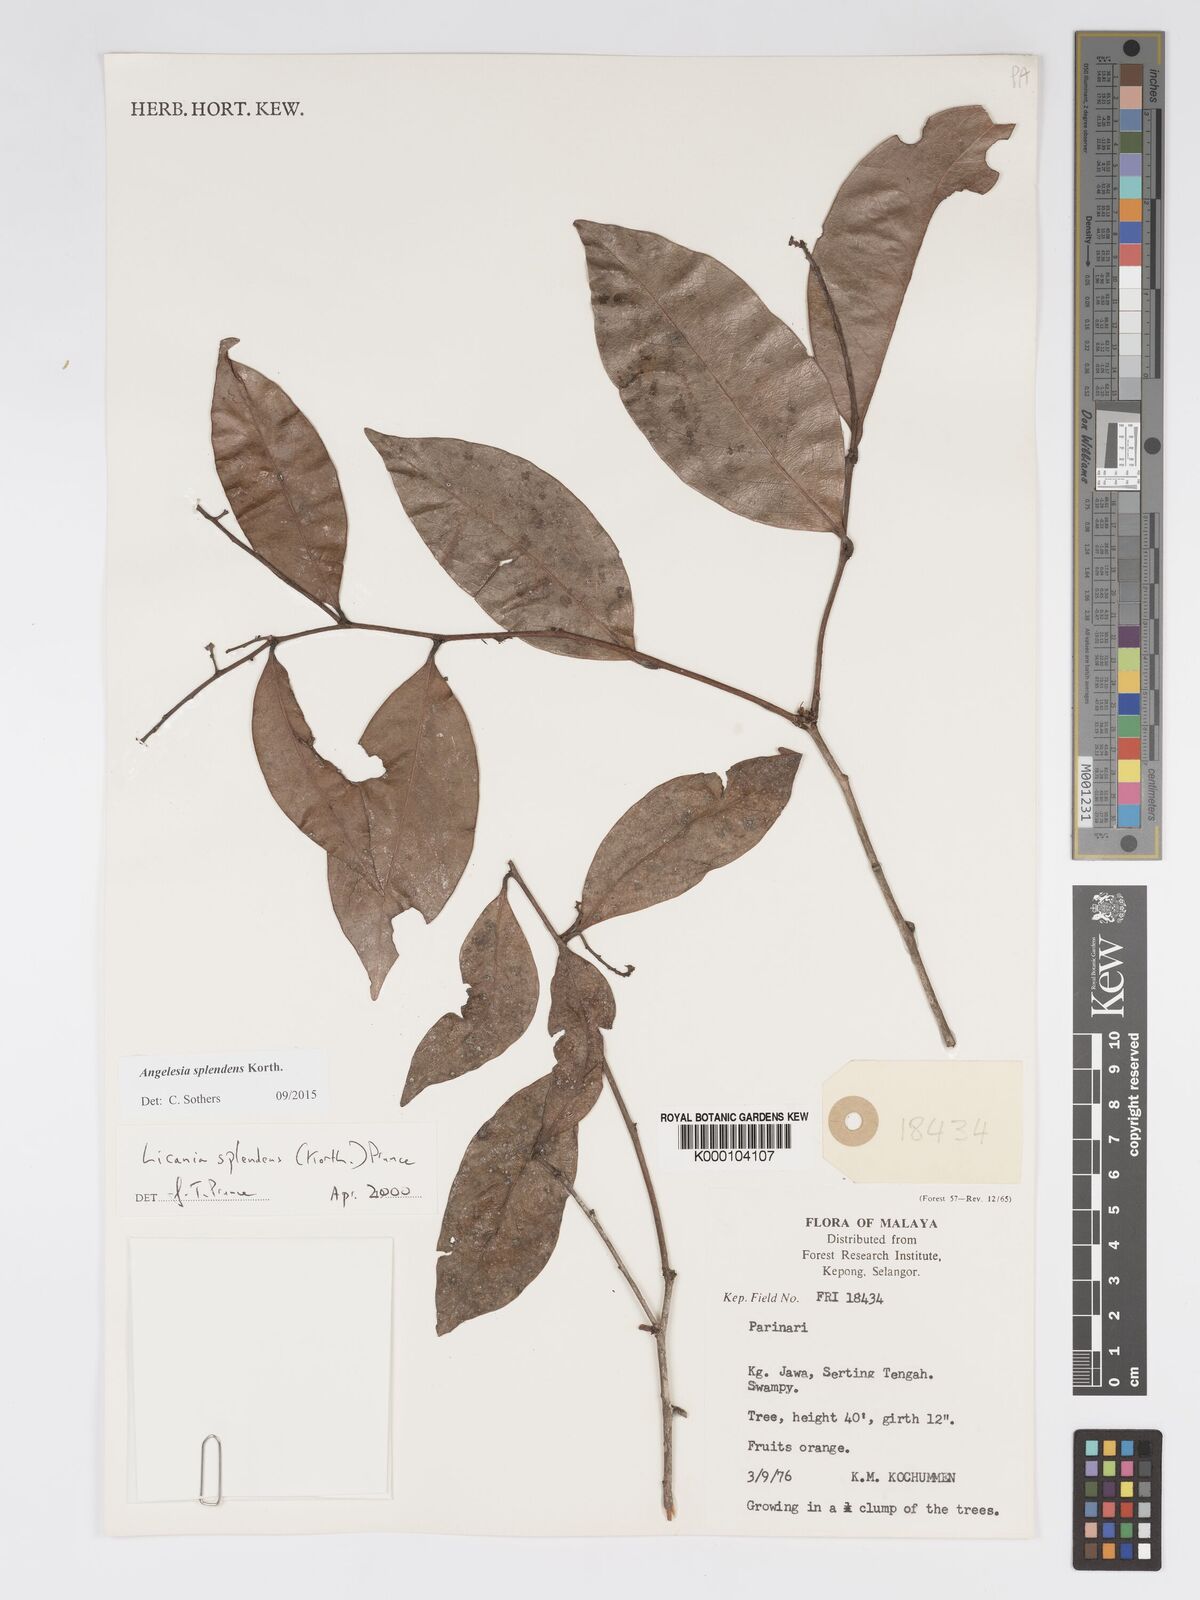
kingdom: Plantae
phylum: Tracheophyta
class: Magnoliopsida
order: Malpighiales
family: Chrysobalanaceae
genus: Angelesia
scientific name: Angelesia splendens
